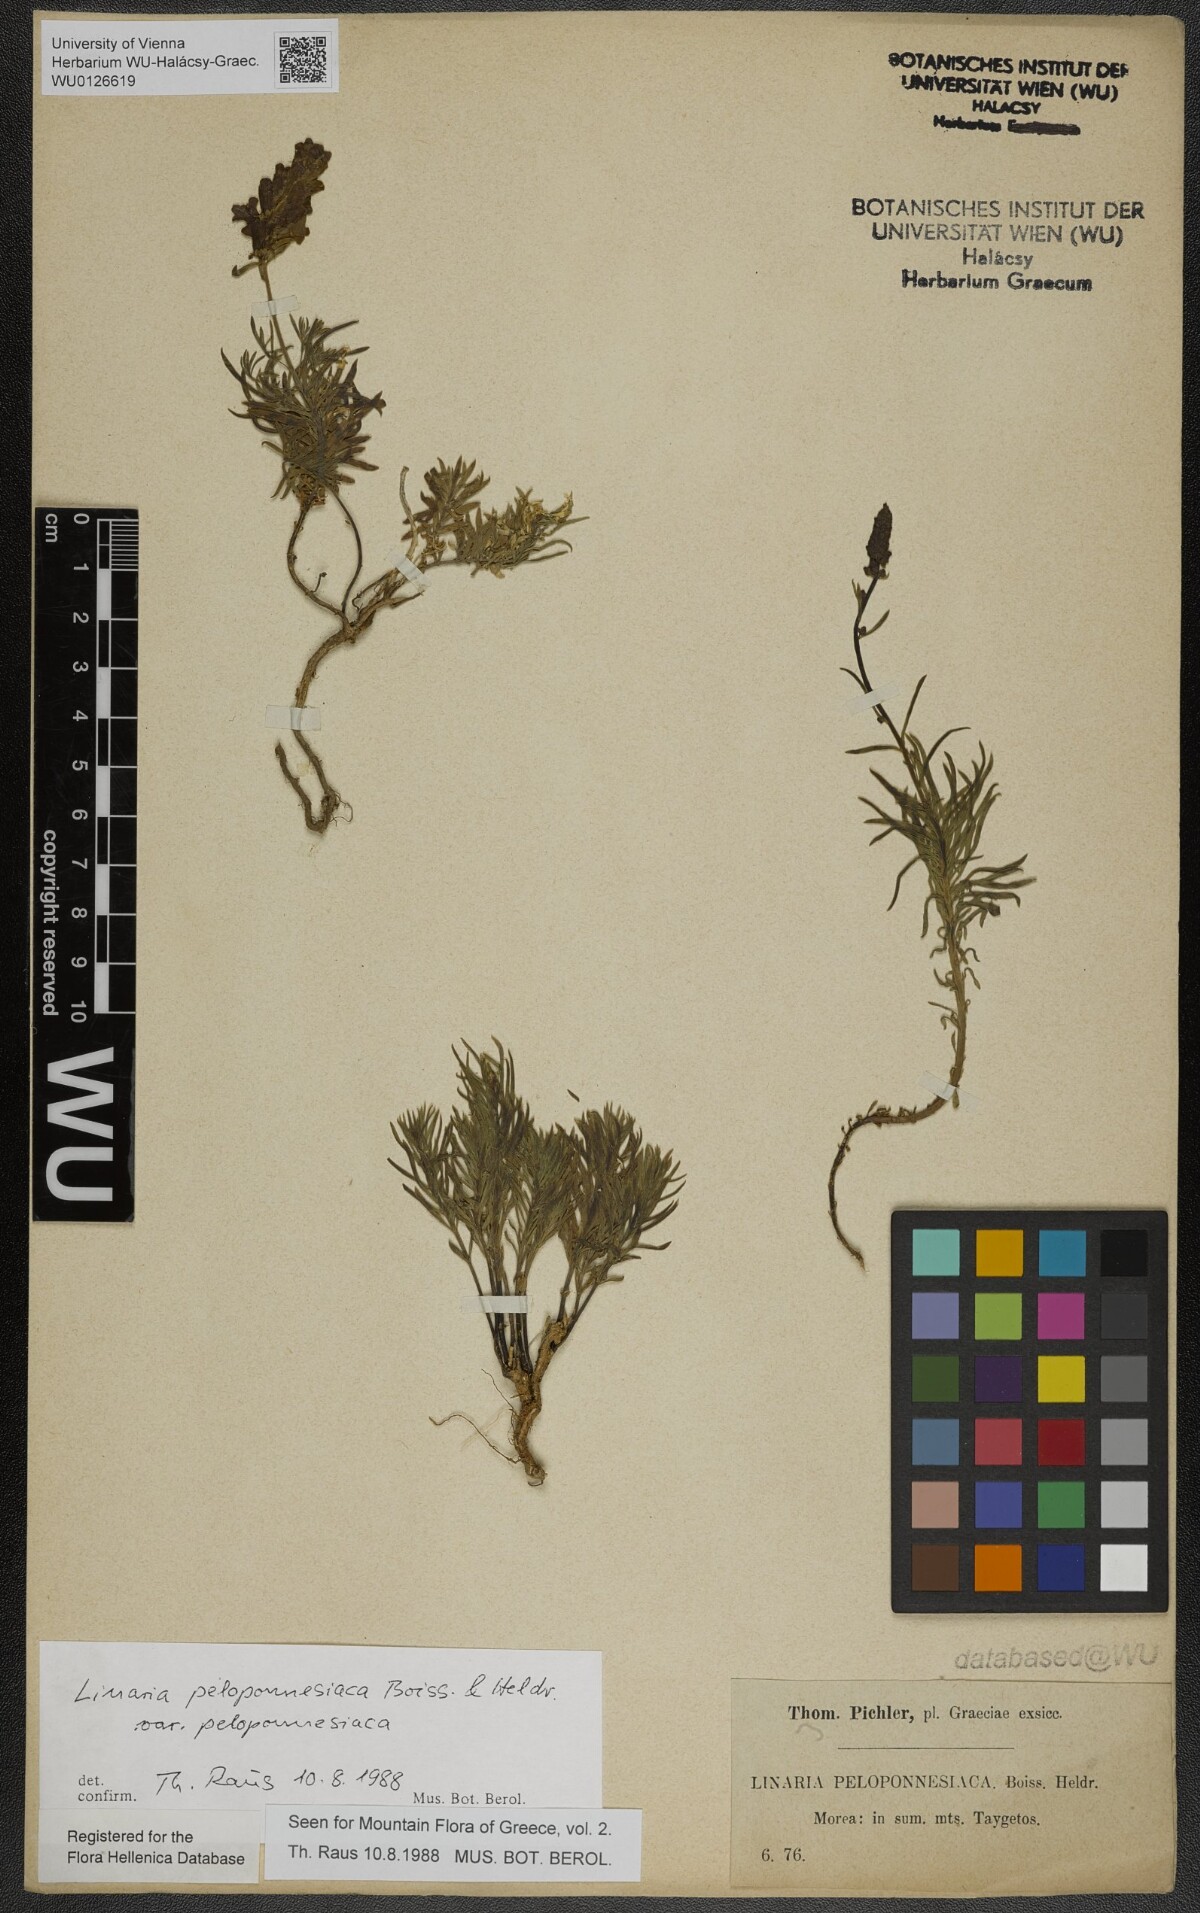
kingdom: Plantae
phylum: Tracheophyta
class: Magnoliopsida
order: Lamiales
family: Plantaginaceae
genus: Linaria
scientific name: Linaria peloponnesiaca
